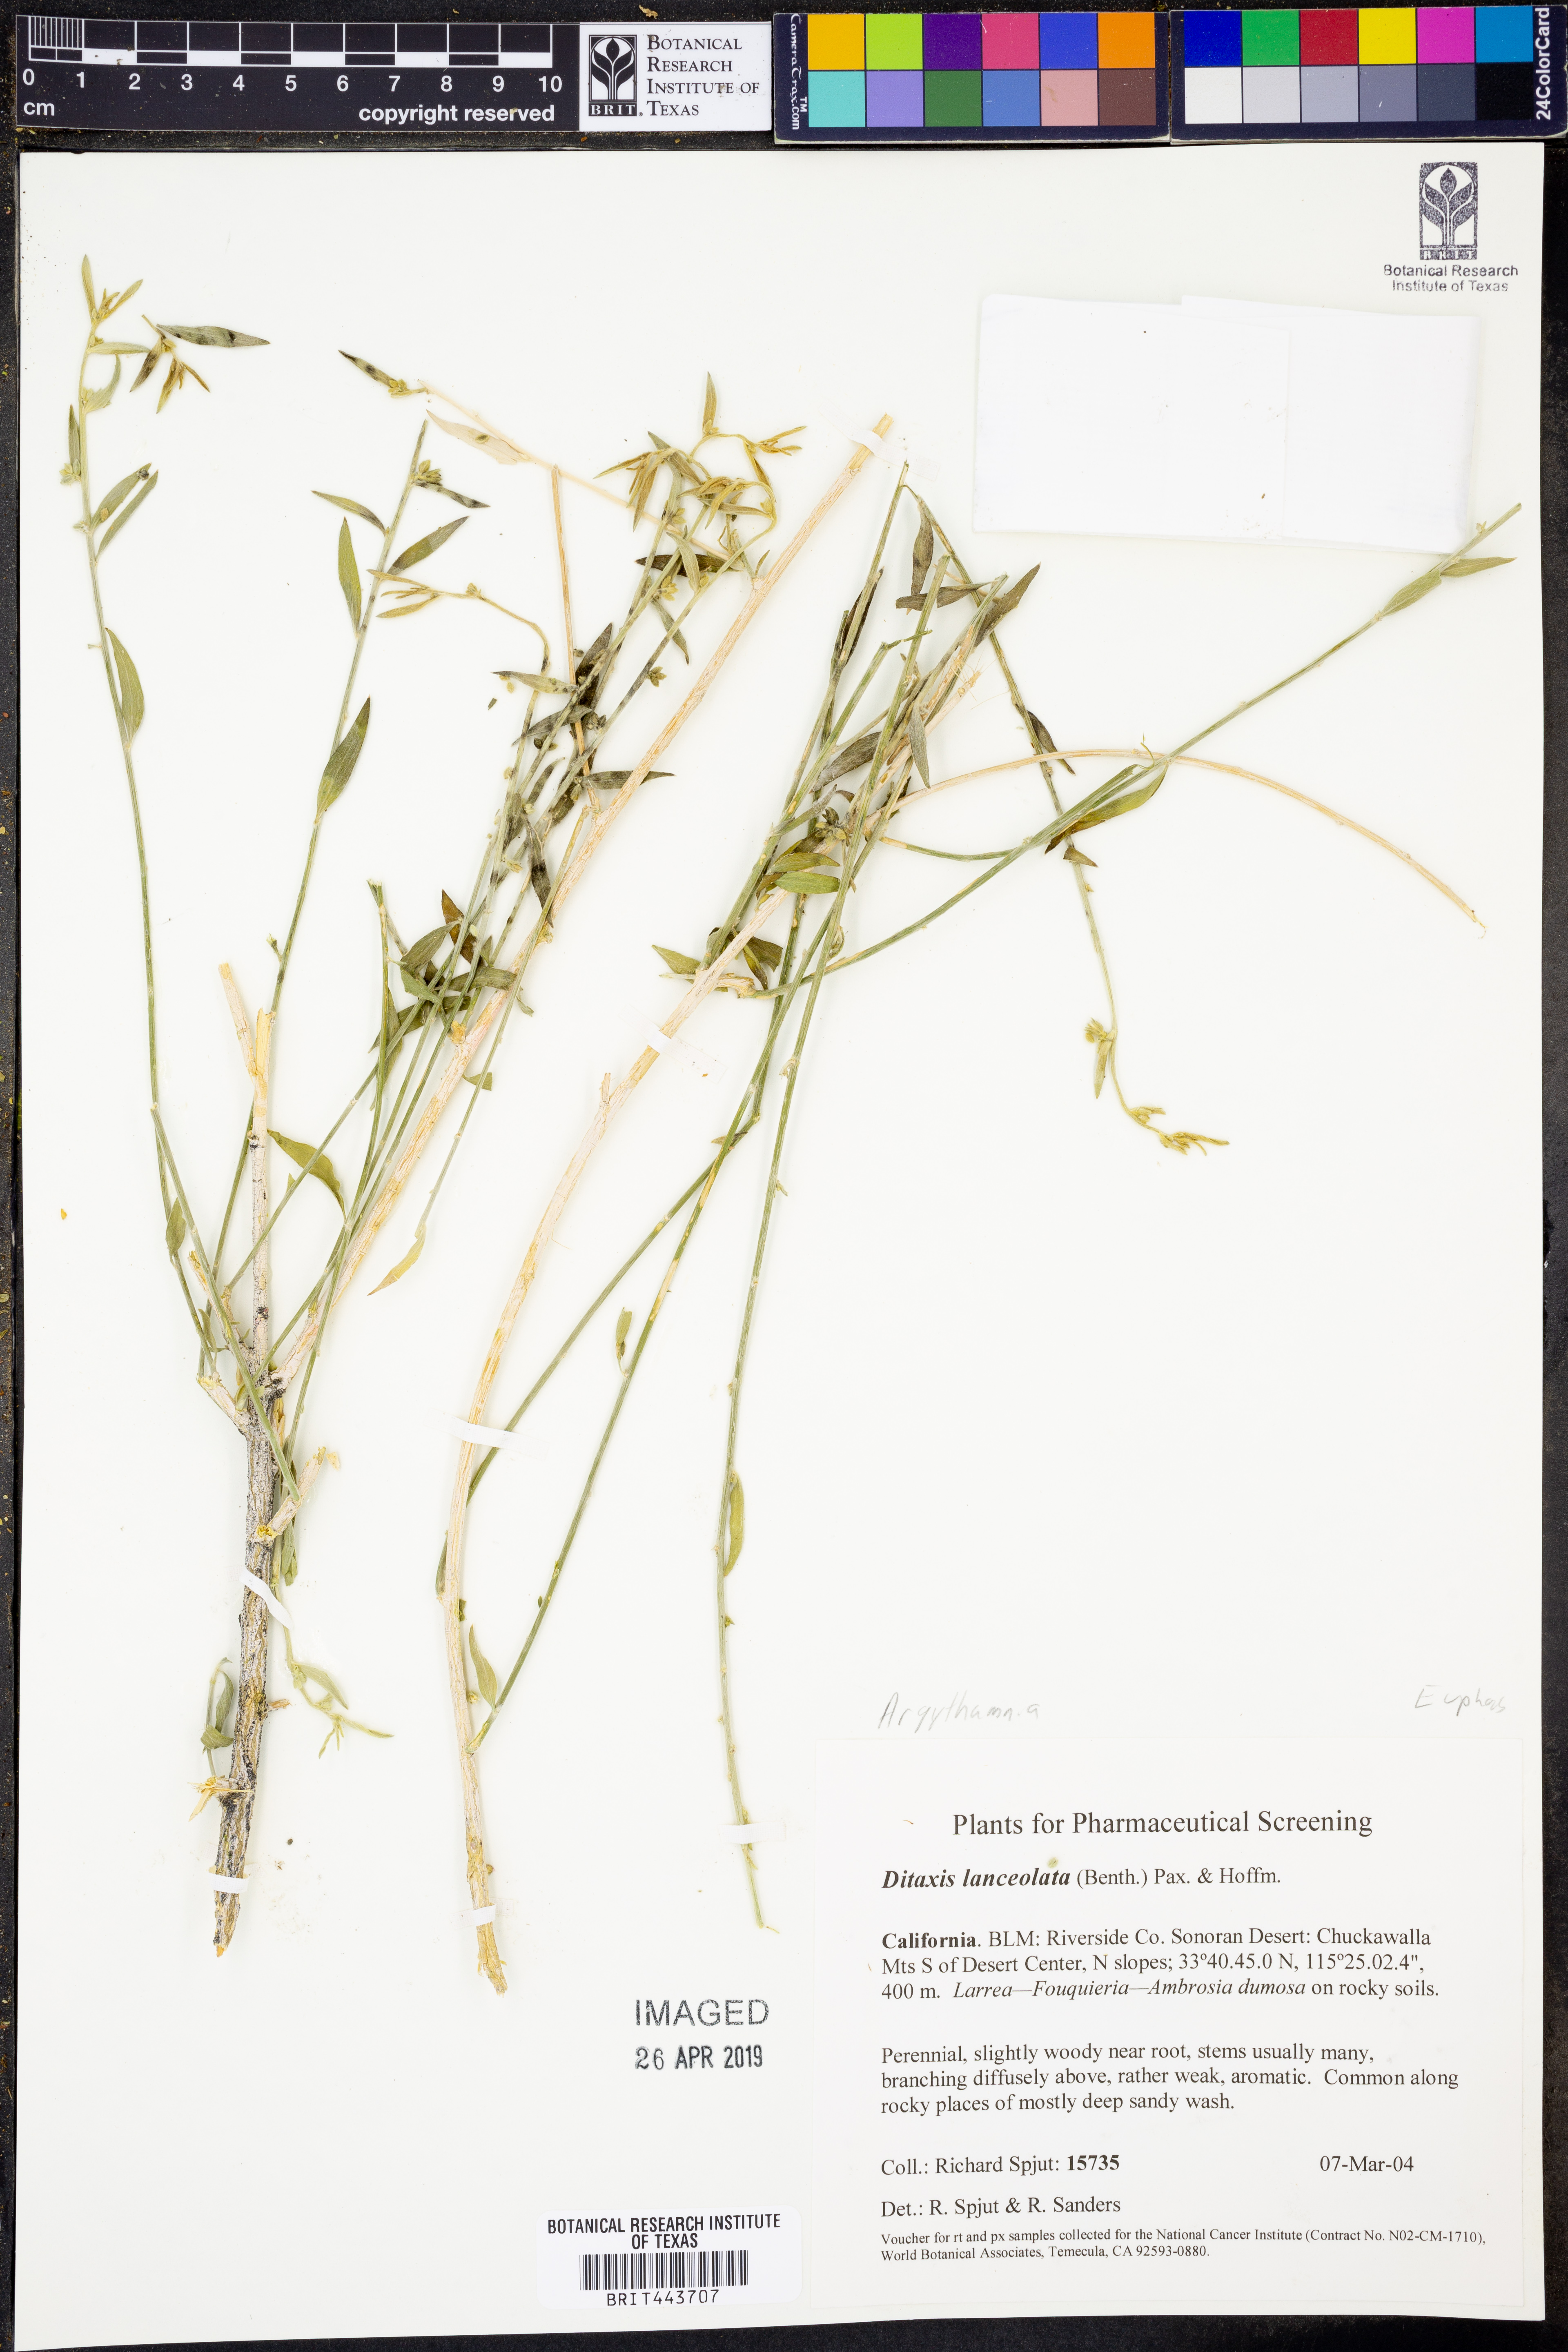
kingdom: Plantae
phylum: Tracheophyta
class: Magnoliopsida
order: Malpighiales
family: Euphorbiaceae
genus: Ditaxis
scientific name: Ditaxis lanceolata
